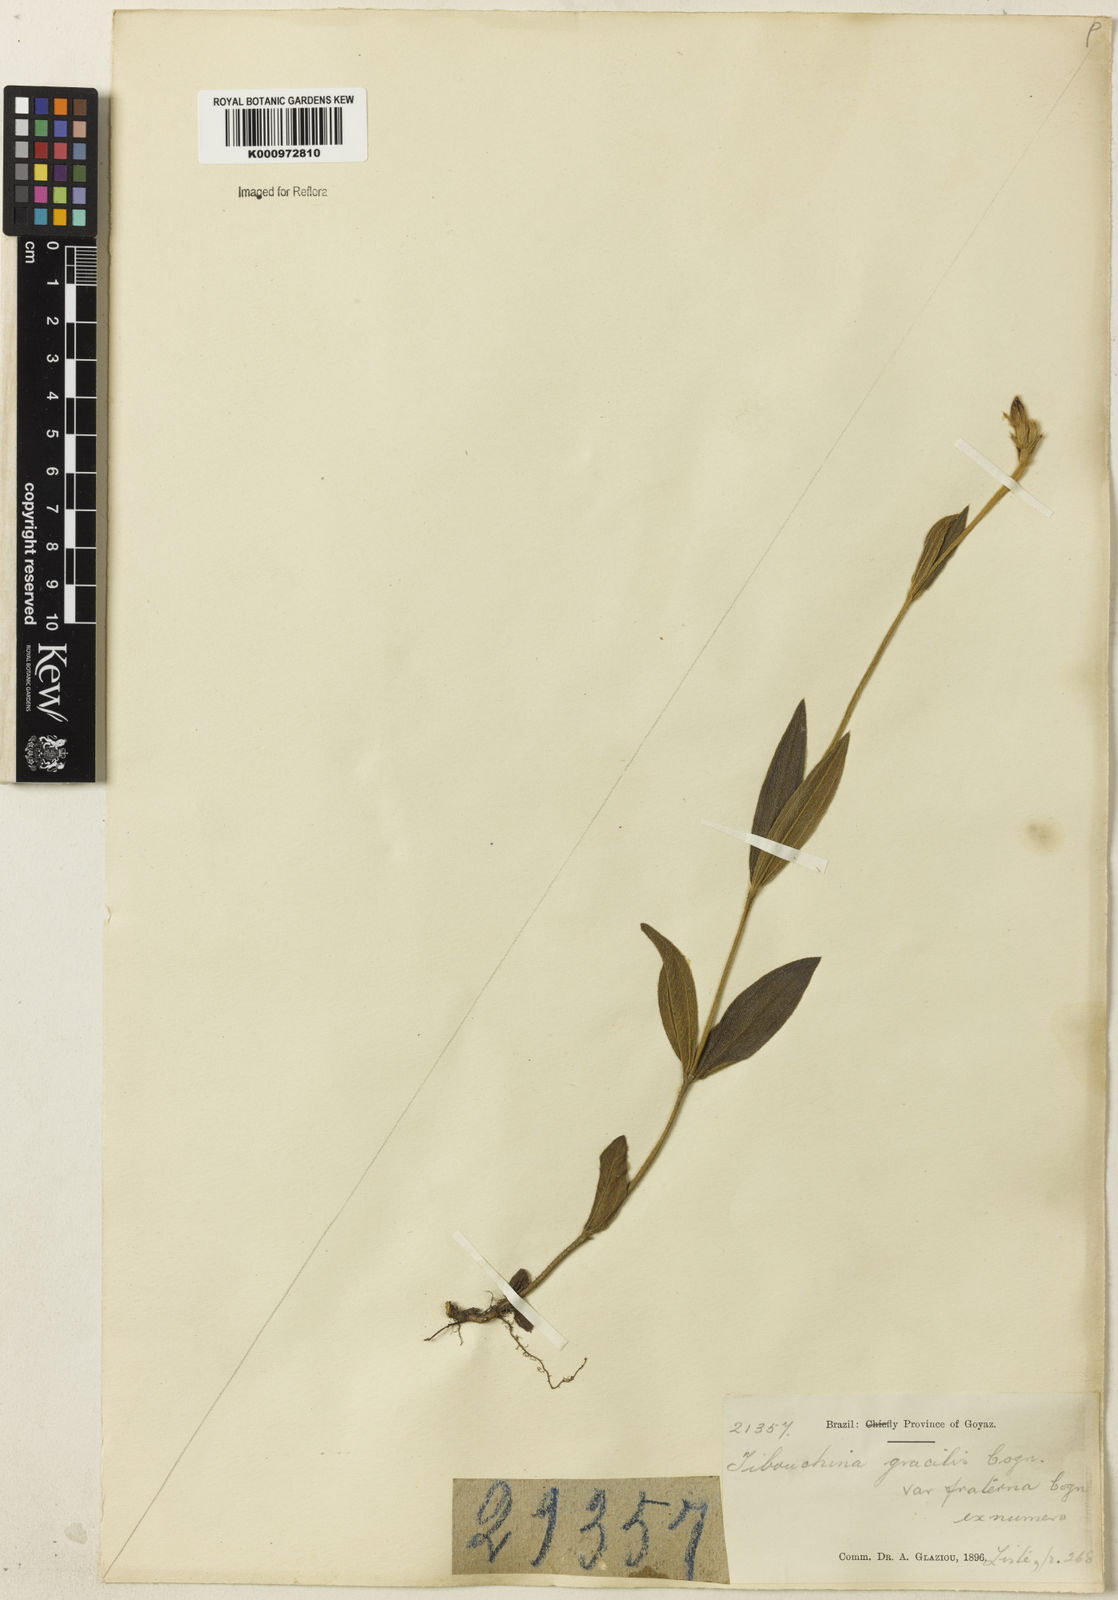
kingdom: Plantae
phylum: Tracheophyta
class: Magnoliopsida
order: Myrtales
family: Melastomataceae
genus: Chaetogastra
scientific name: Chaetogastra gracilis
